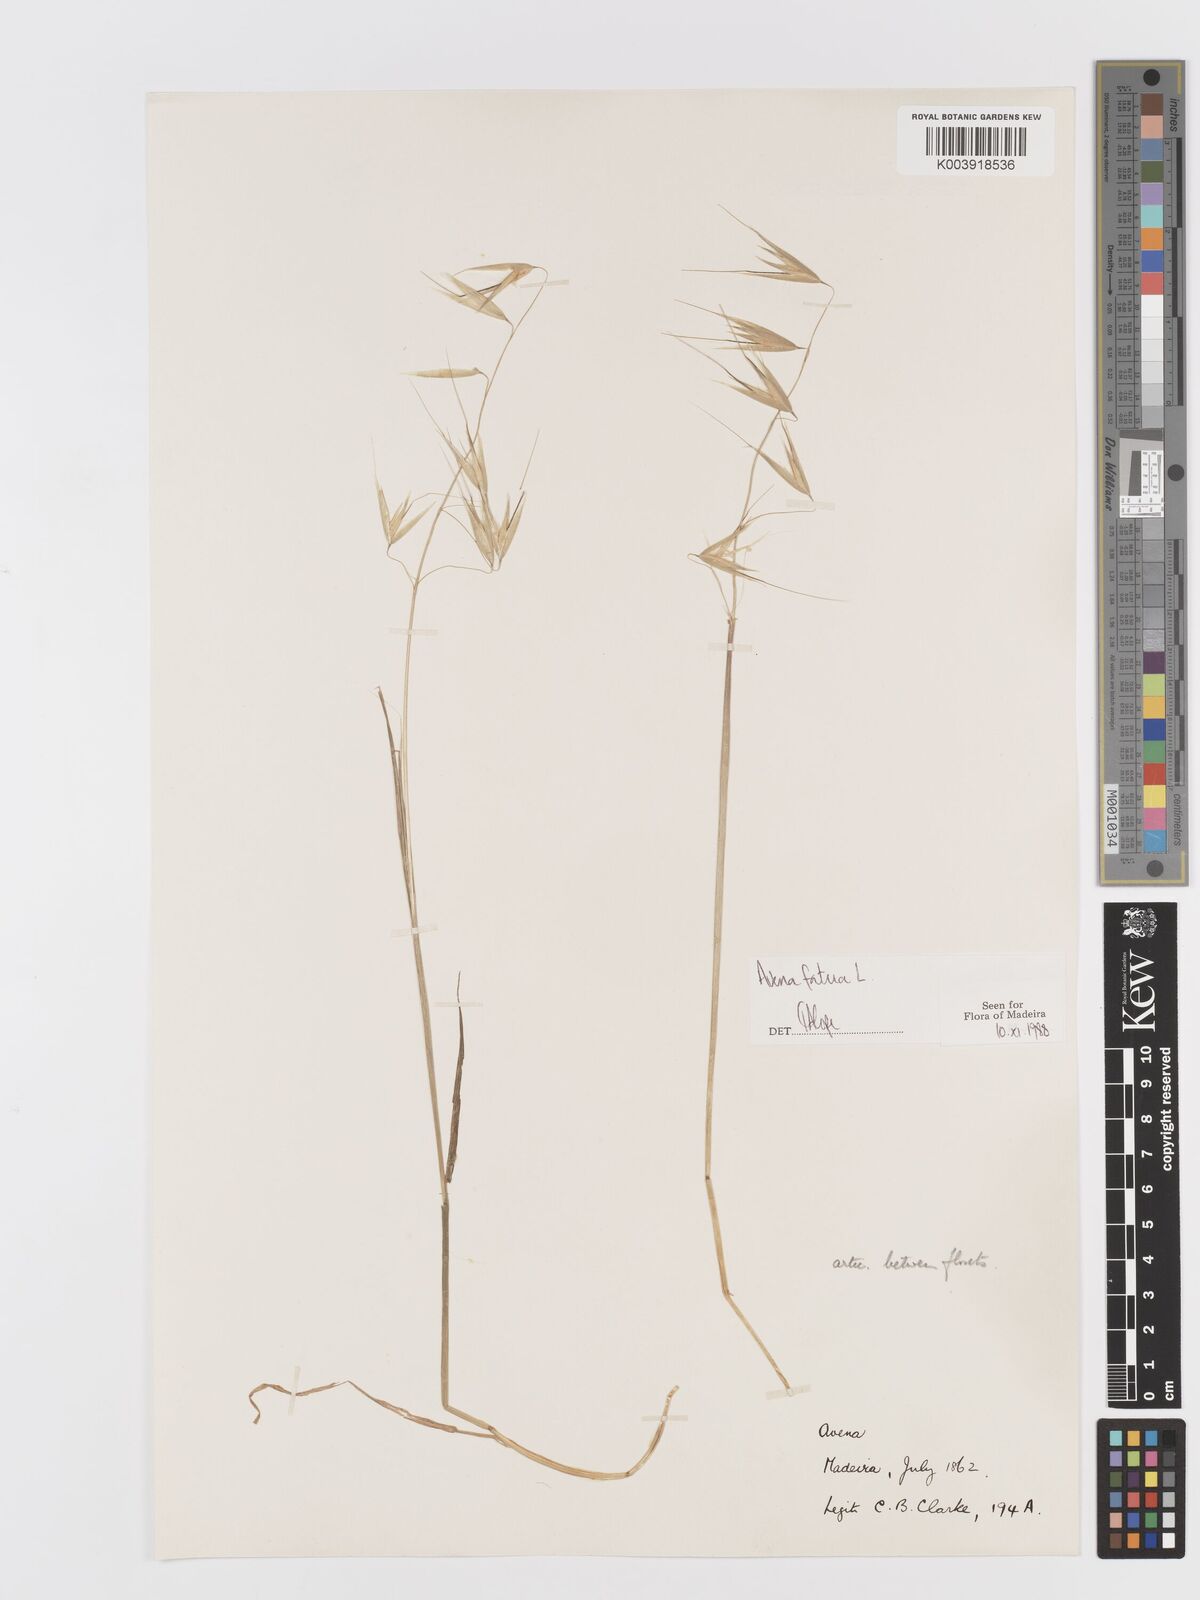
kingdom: Plantae
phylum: Tracheophyta
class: Liliopsida
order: Poales
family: Poaceae
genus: Avena
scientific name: Avena fatua
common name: Wild oat
